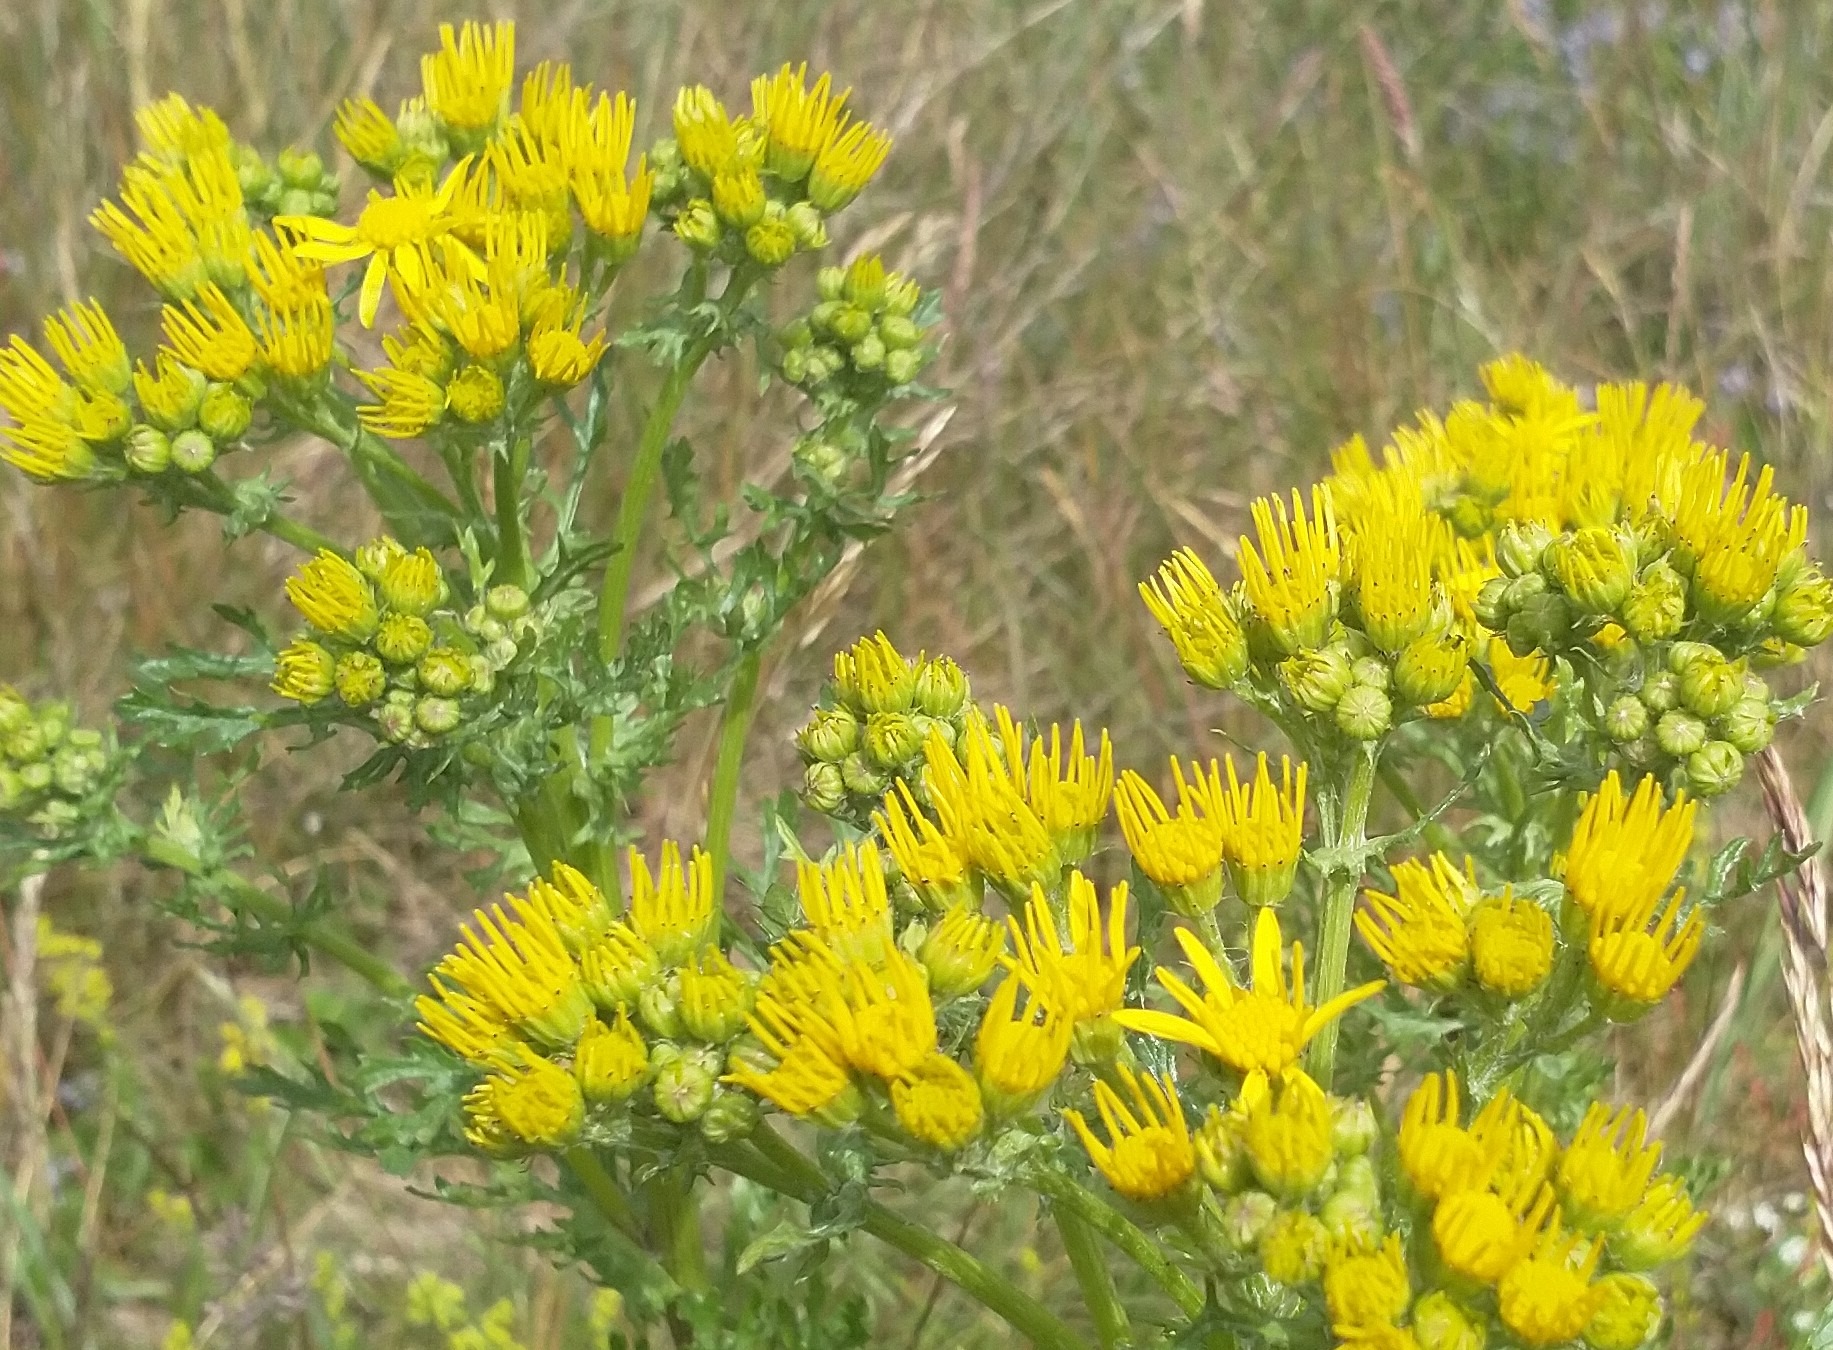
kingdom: Plantae
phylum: Tracheophyta
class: Magnoliopsida
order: Asterales
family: Asteraceae
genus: Jacobaea
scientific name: Jacobaea vulgaris
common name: Eng-brandbæger
